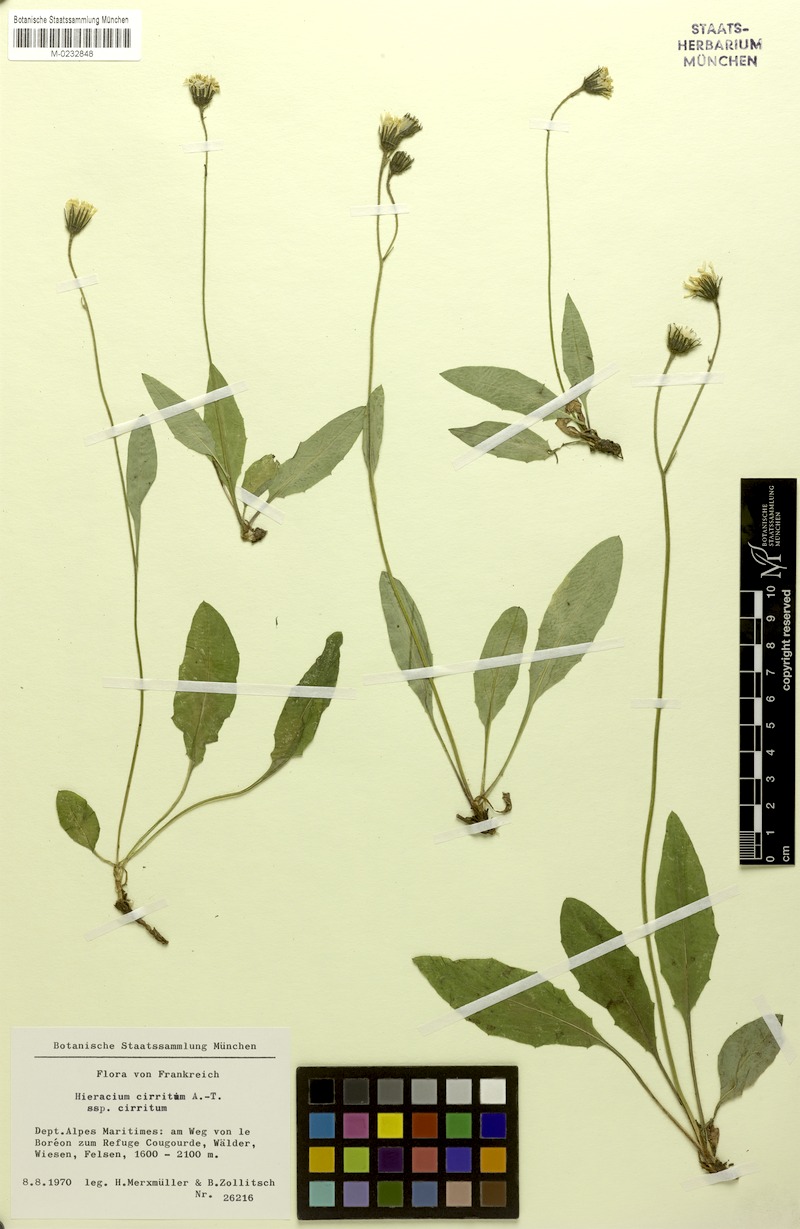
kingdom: Plantae
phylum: Tracheophyta
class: Magnoliopsida
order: Asterales
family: Asteraceae
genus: Hieracium
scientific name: Hieracium cirritum
